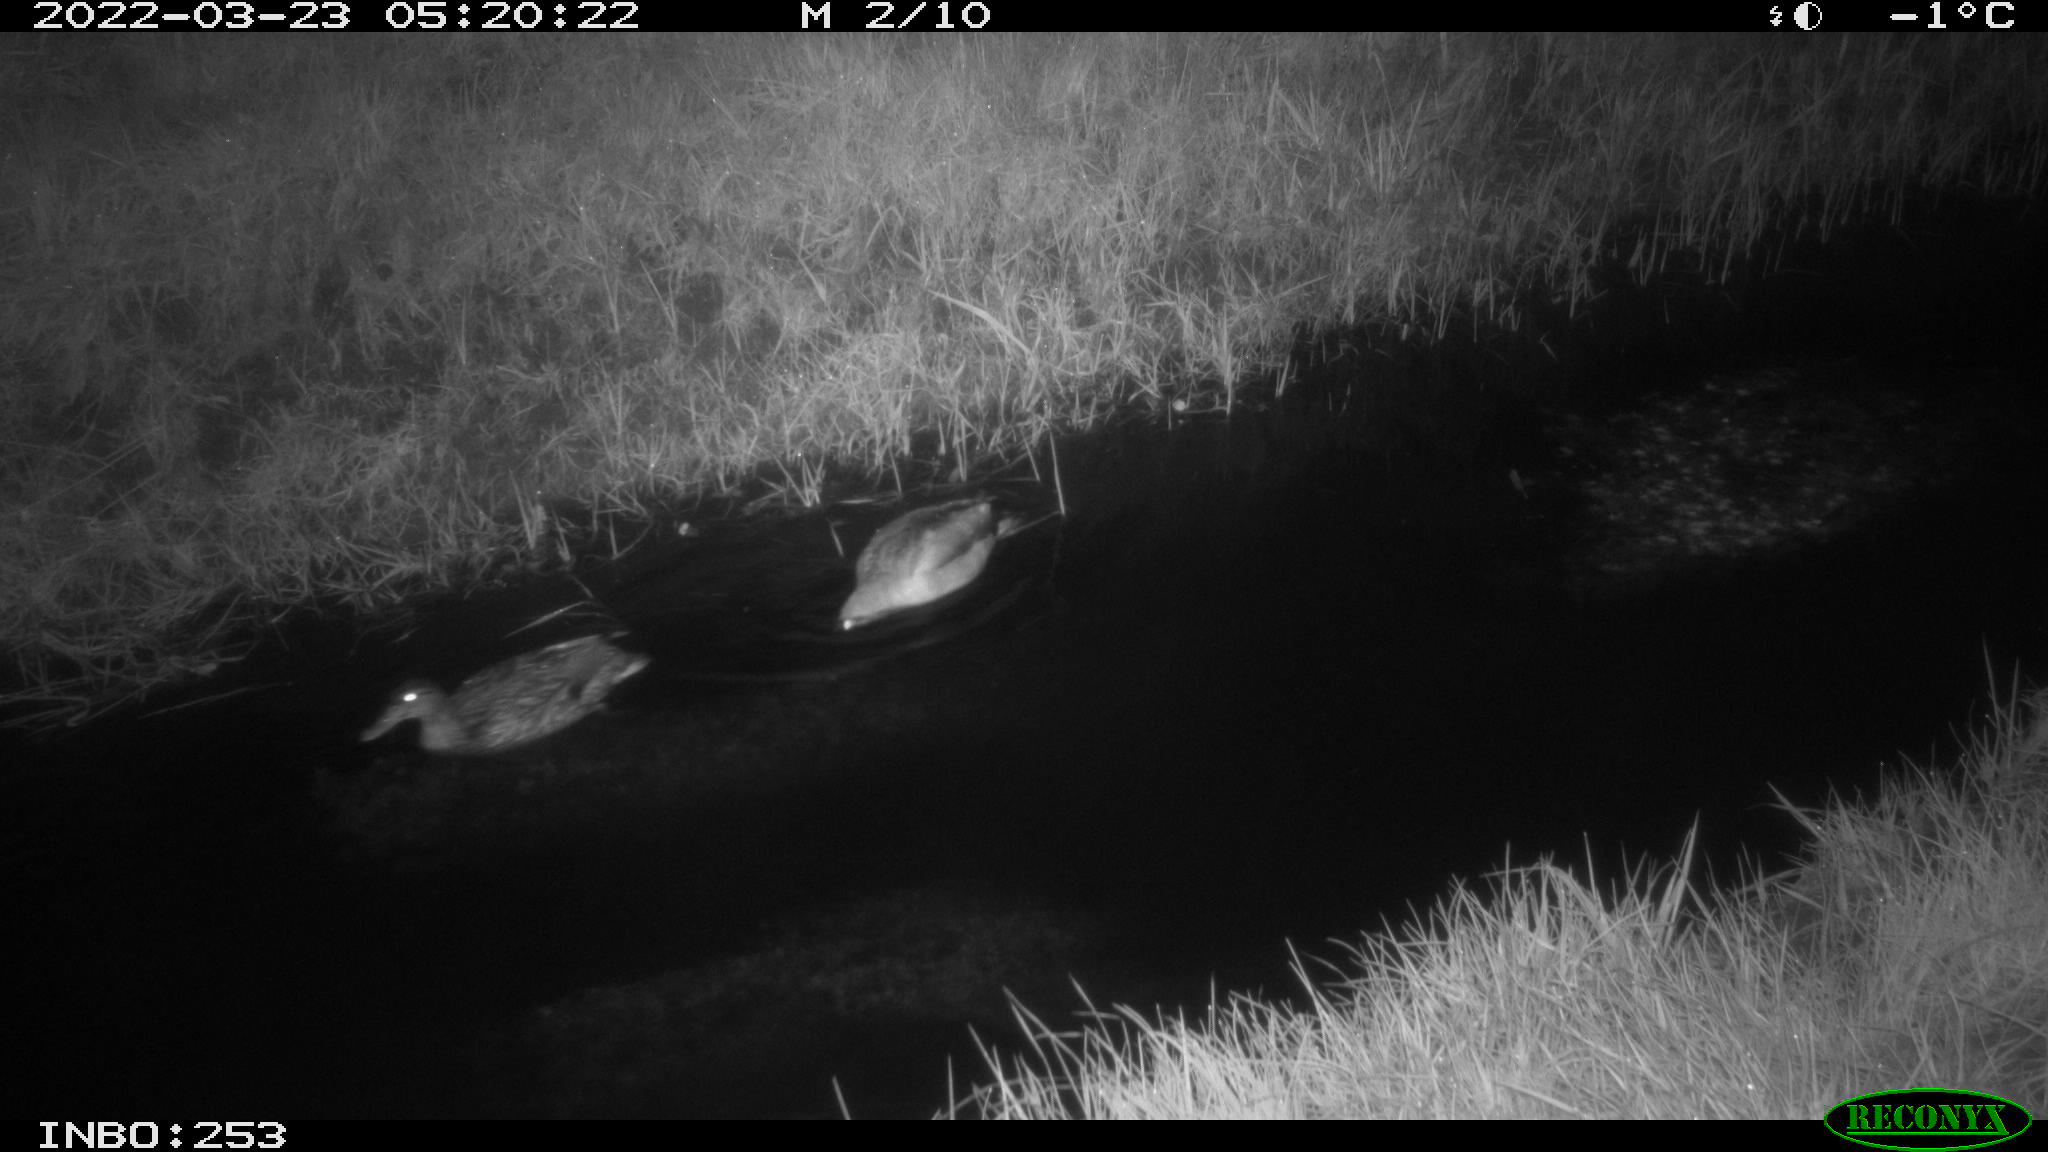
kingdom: Animalia
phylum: Chordata
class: Aves
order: Anseriformes
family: Anatidae
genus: Anas
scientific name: Anas platyrhynchos
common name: Mallard
